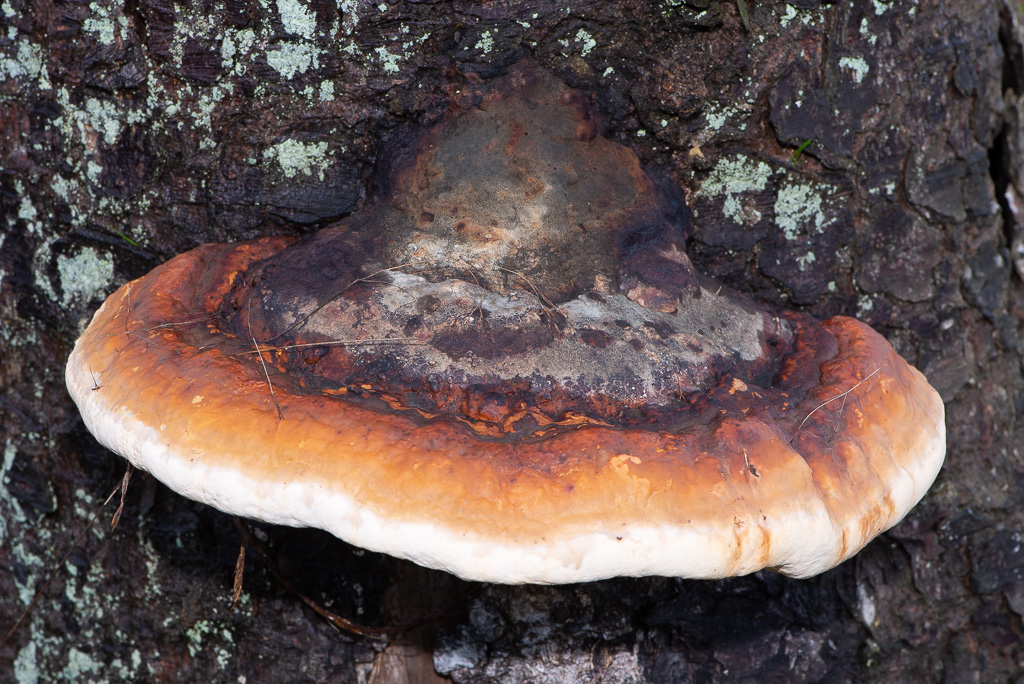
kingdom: Fungi
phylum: Basidiomycota
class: Agaricomycetes
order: Polyporales
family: Fomitopsidaceae
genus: Fomitopsis
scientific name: Fomitopsis pinicola
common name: randbæltet hovporesvamp
